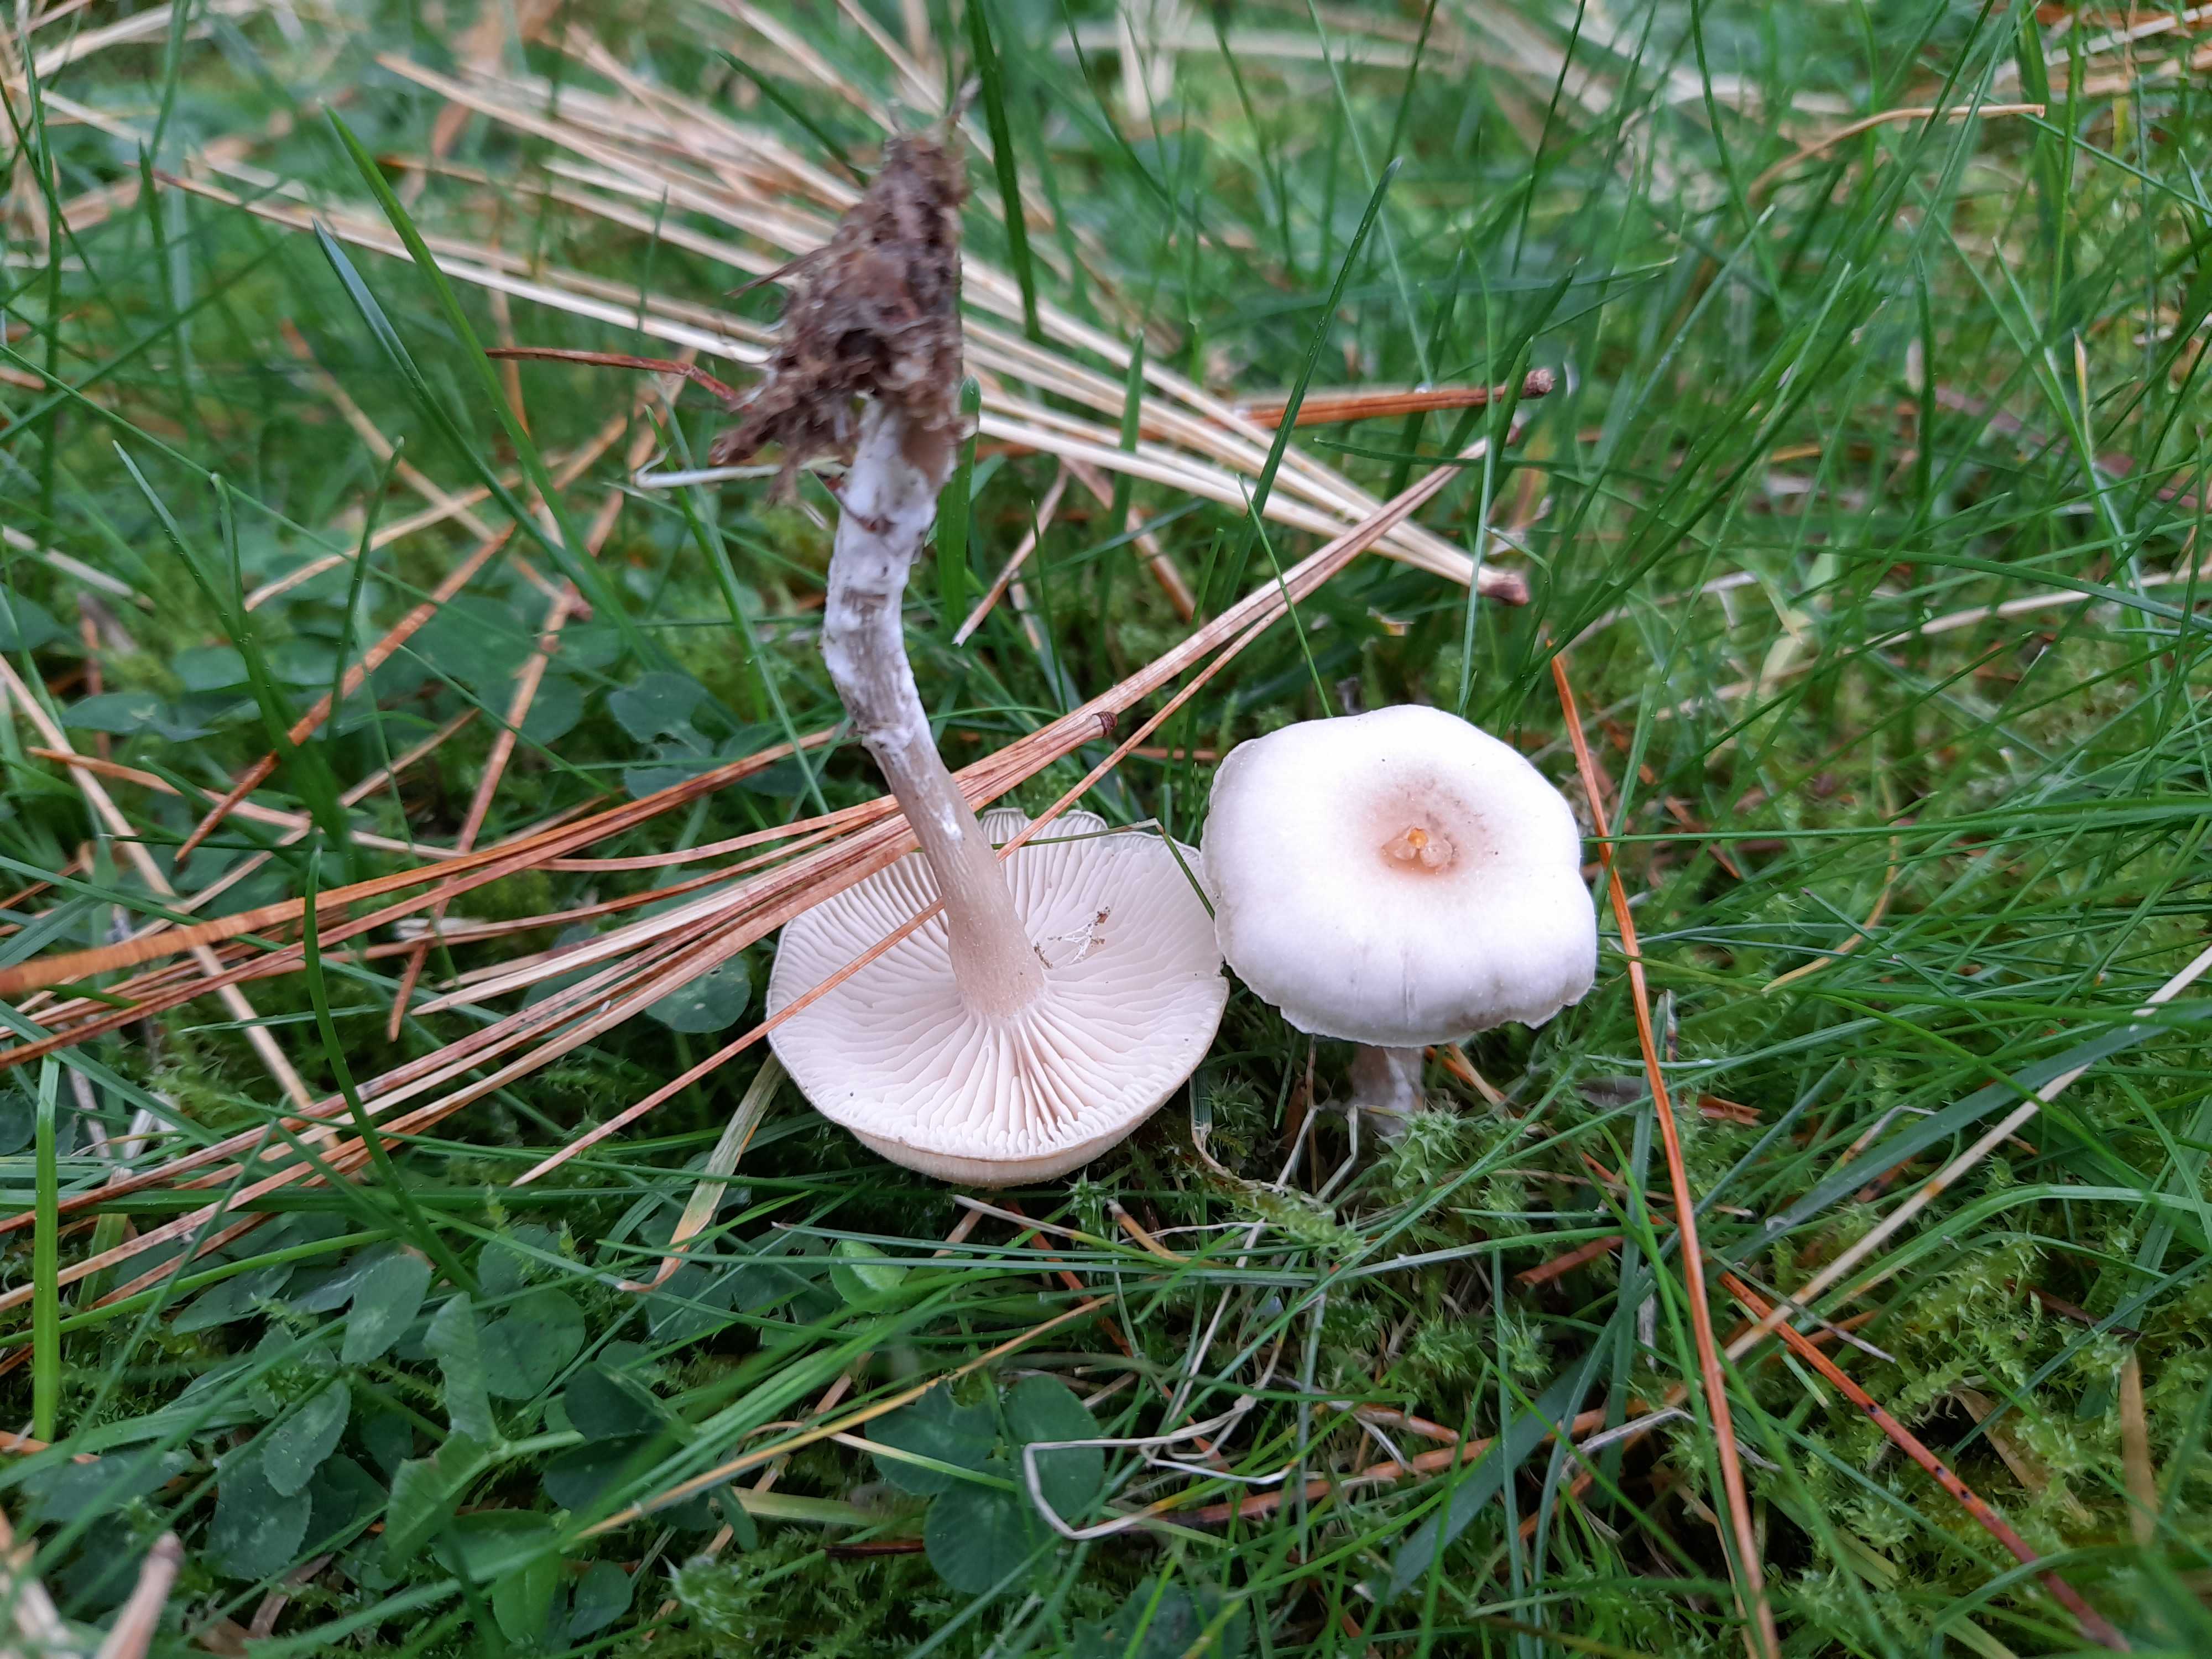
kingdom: Fungi
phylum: Basidiomycota
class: Agaricomycetes
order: Agaricales
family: Tricholomataceae
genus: Clitocybe
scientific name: Clitocybe fragrans
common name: vellugtende tragthat
